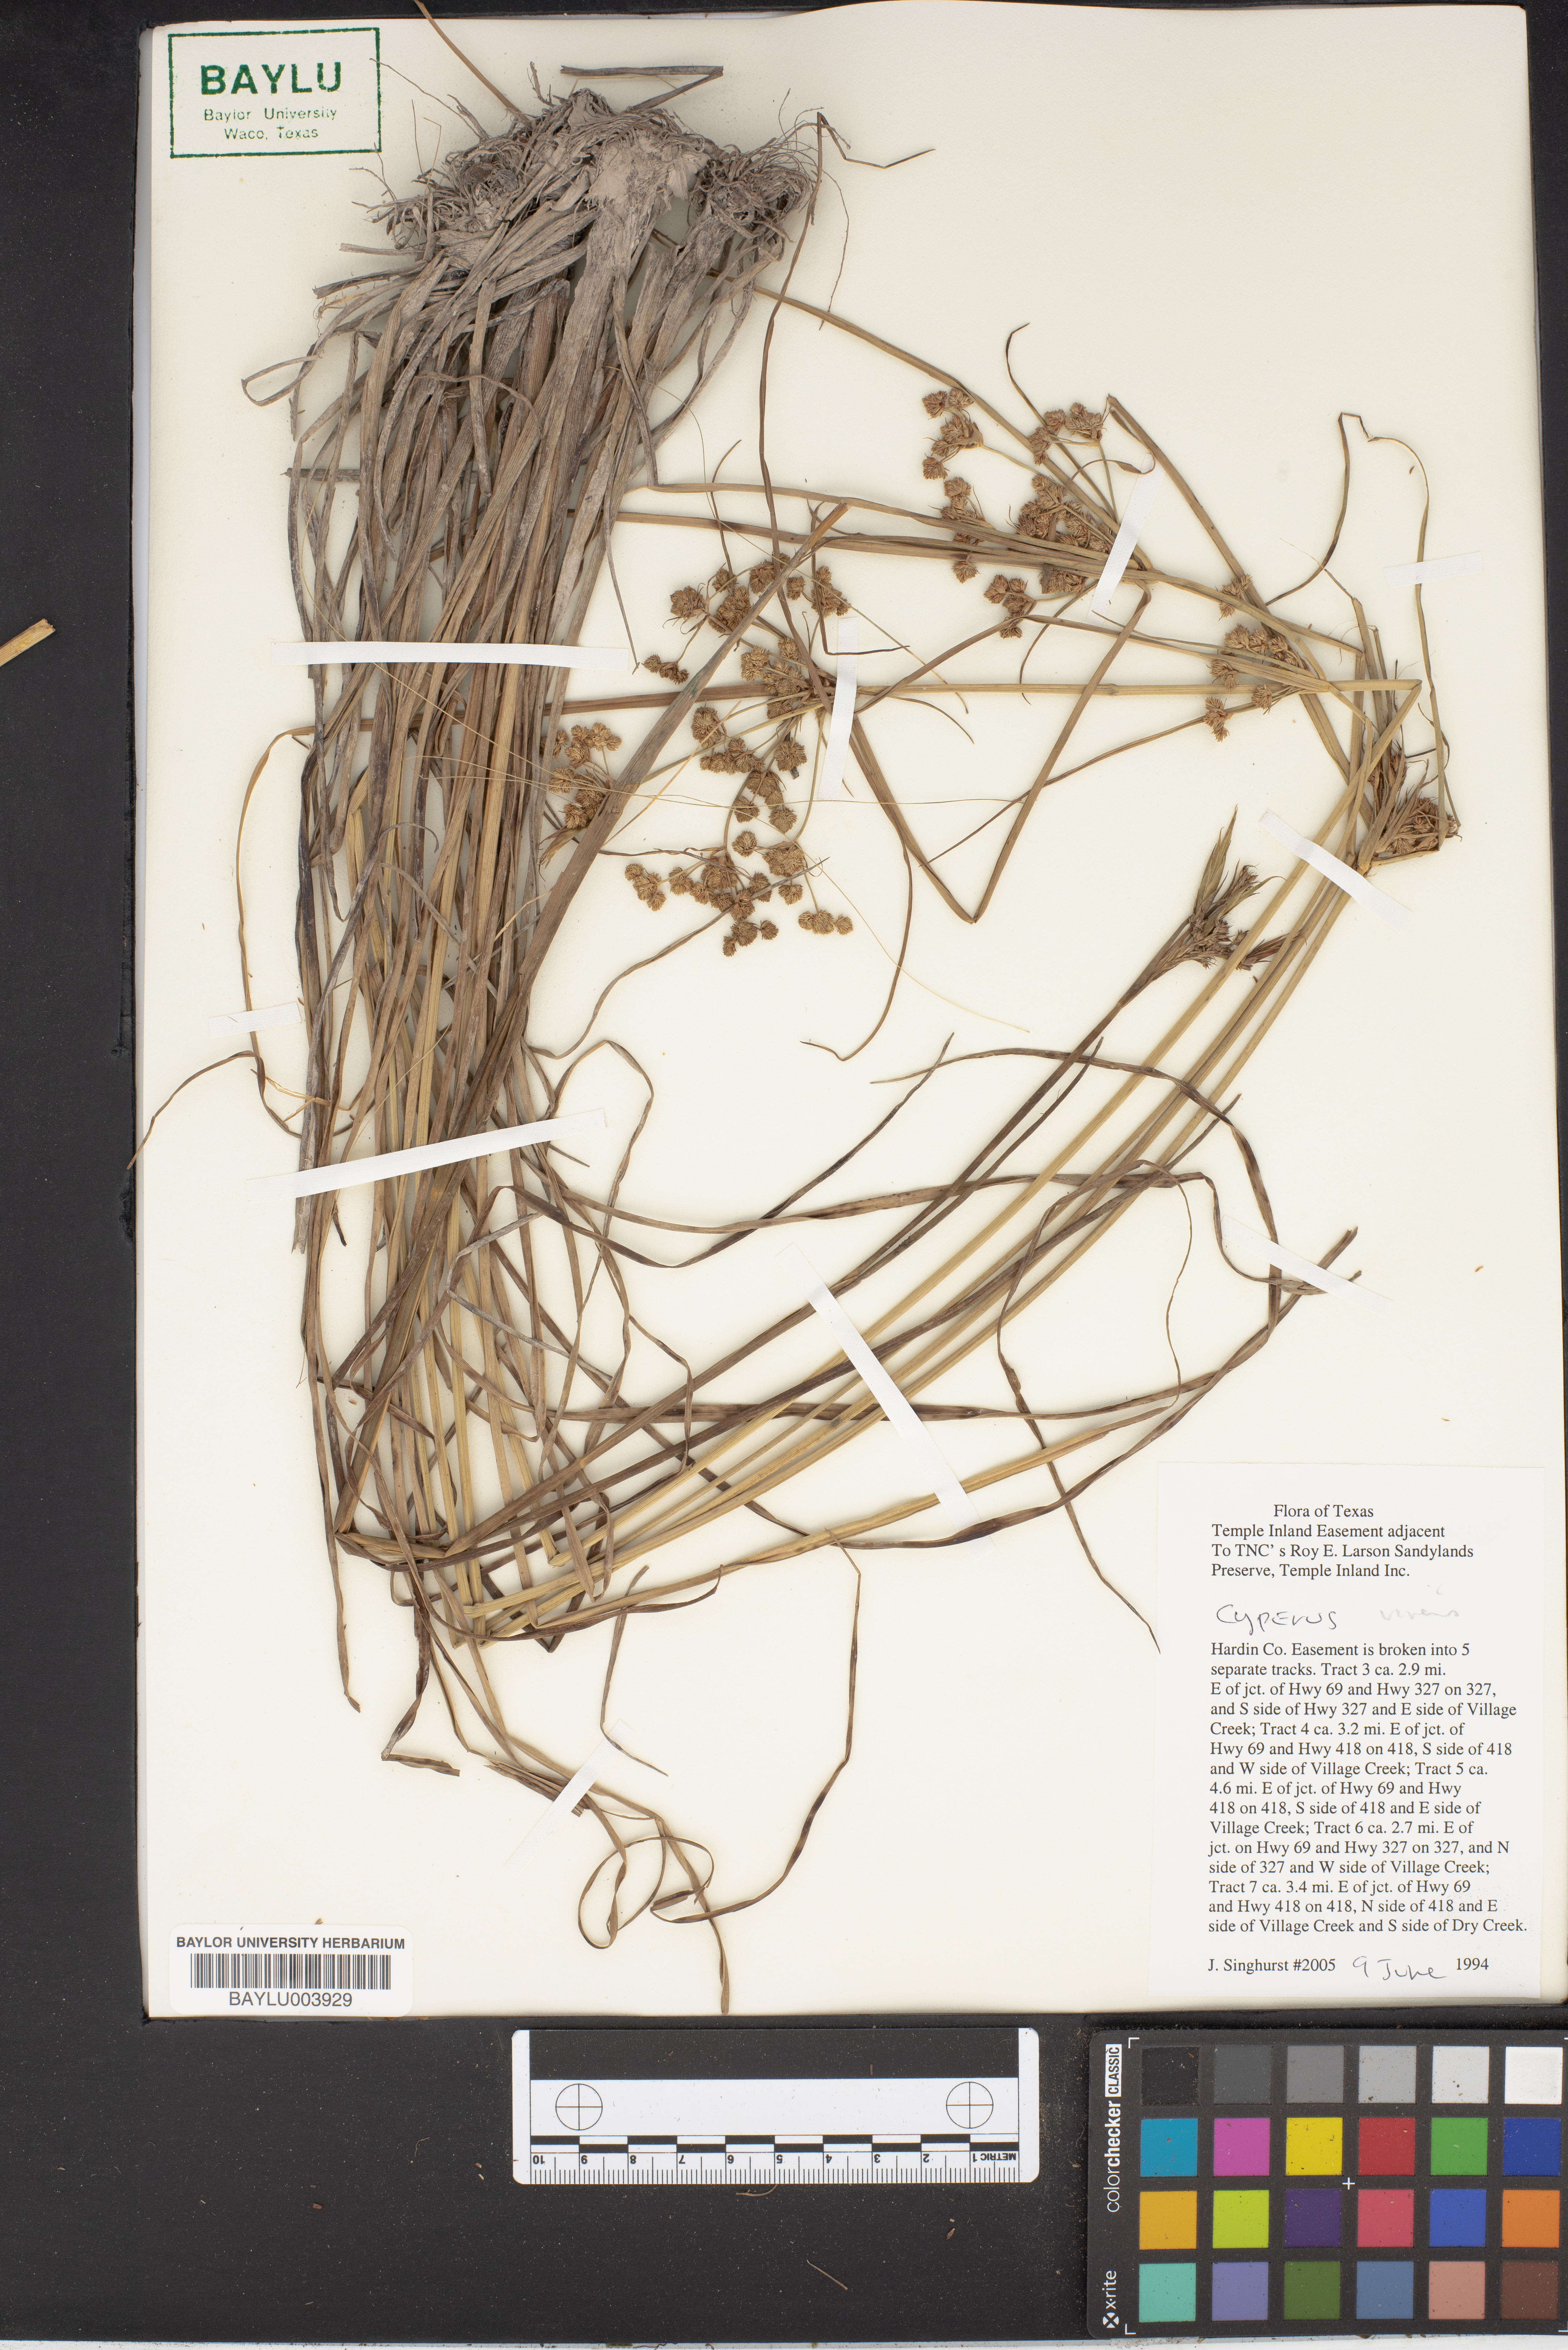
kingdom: Plantae
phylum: Tracheophyta
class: Liliopsida
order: Poales
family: Cyperaceae
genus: Cyperus
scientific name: Cyperus virens
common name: Green flatsedge
